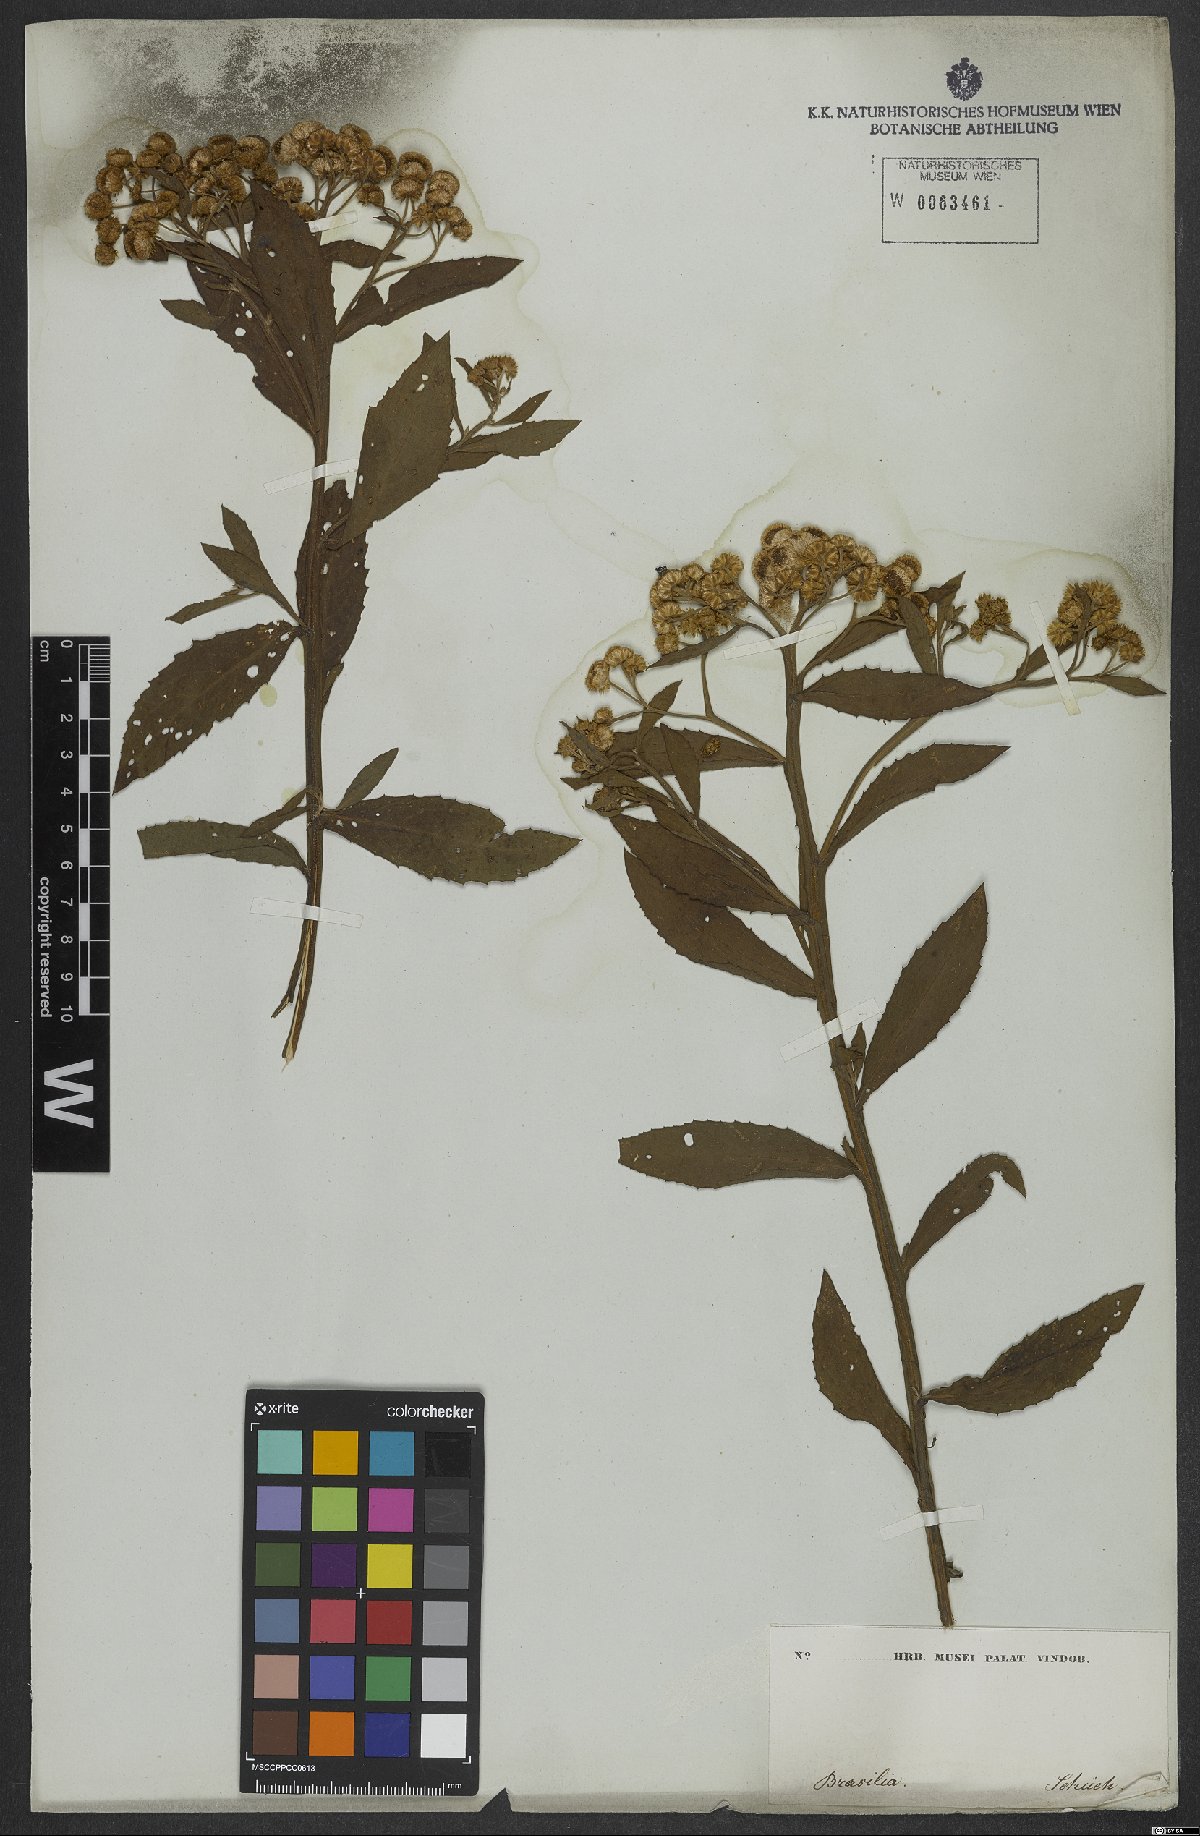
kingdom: Plantae
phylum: Tracheophyta
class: Magnoliopsida
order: Asterales
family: Asteraceae
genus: Pluchea
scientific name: Pluchea sagittalis
